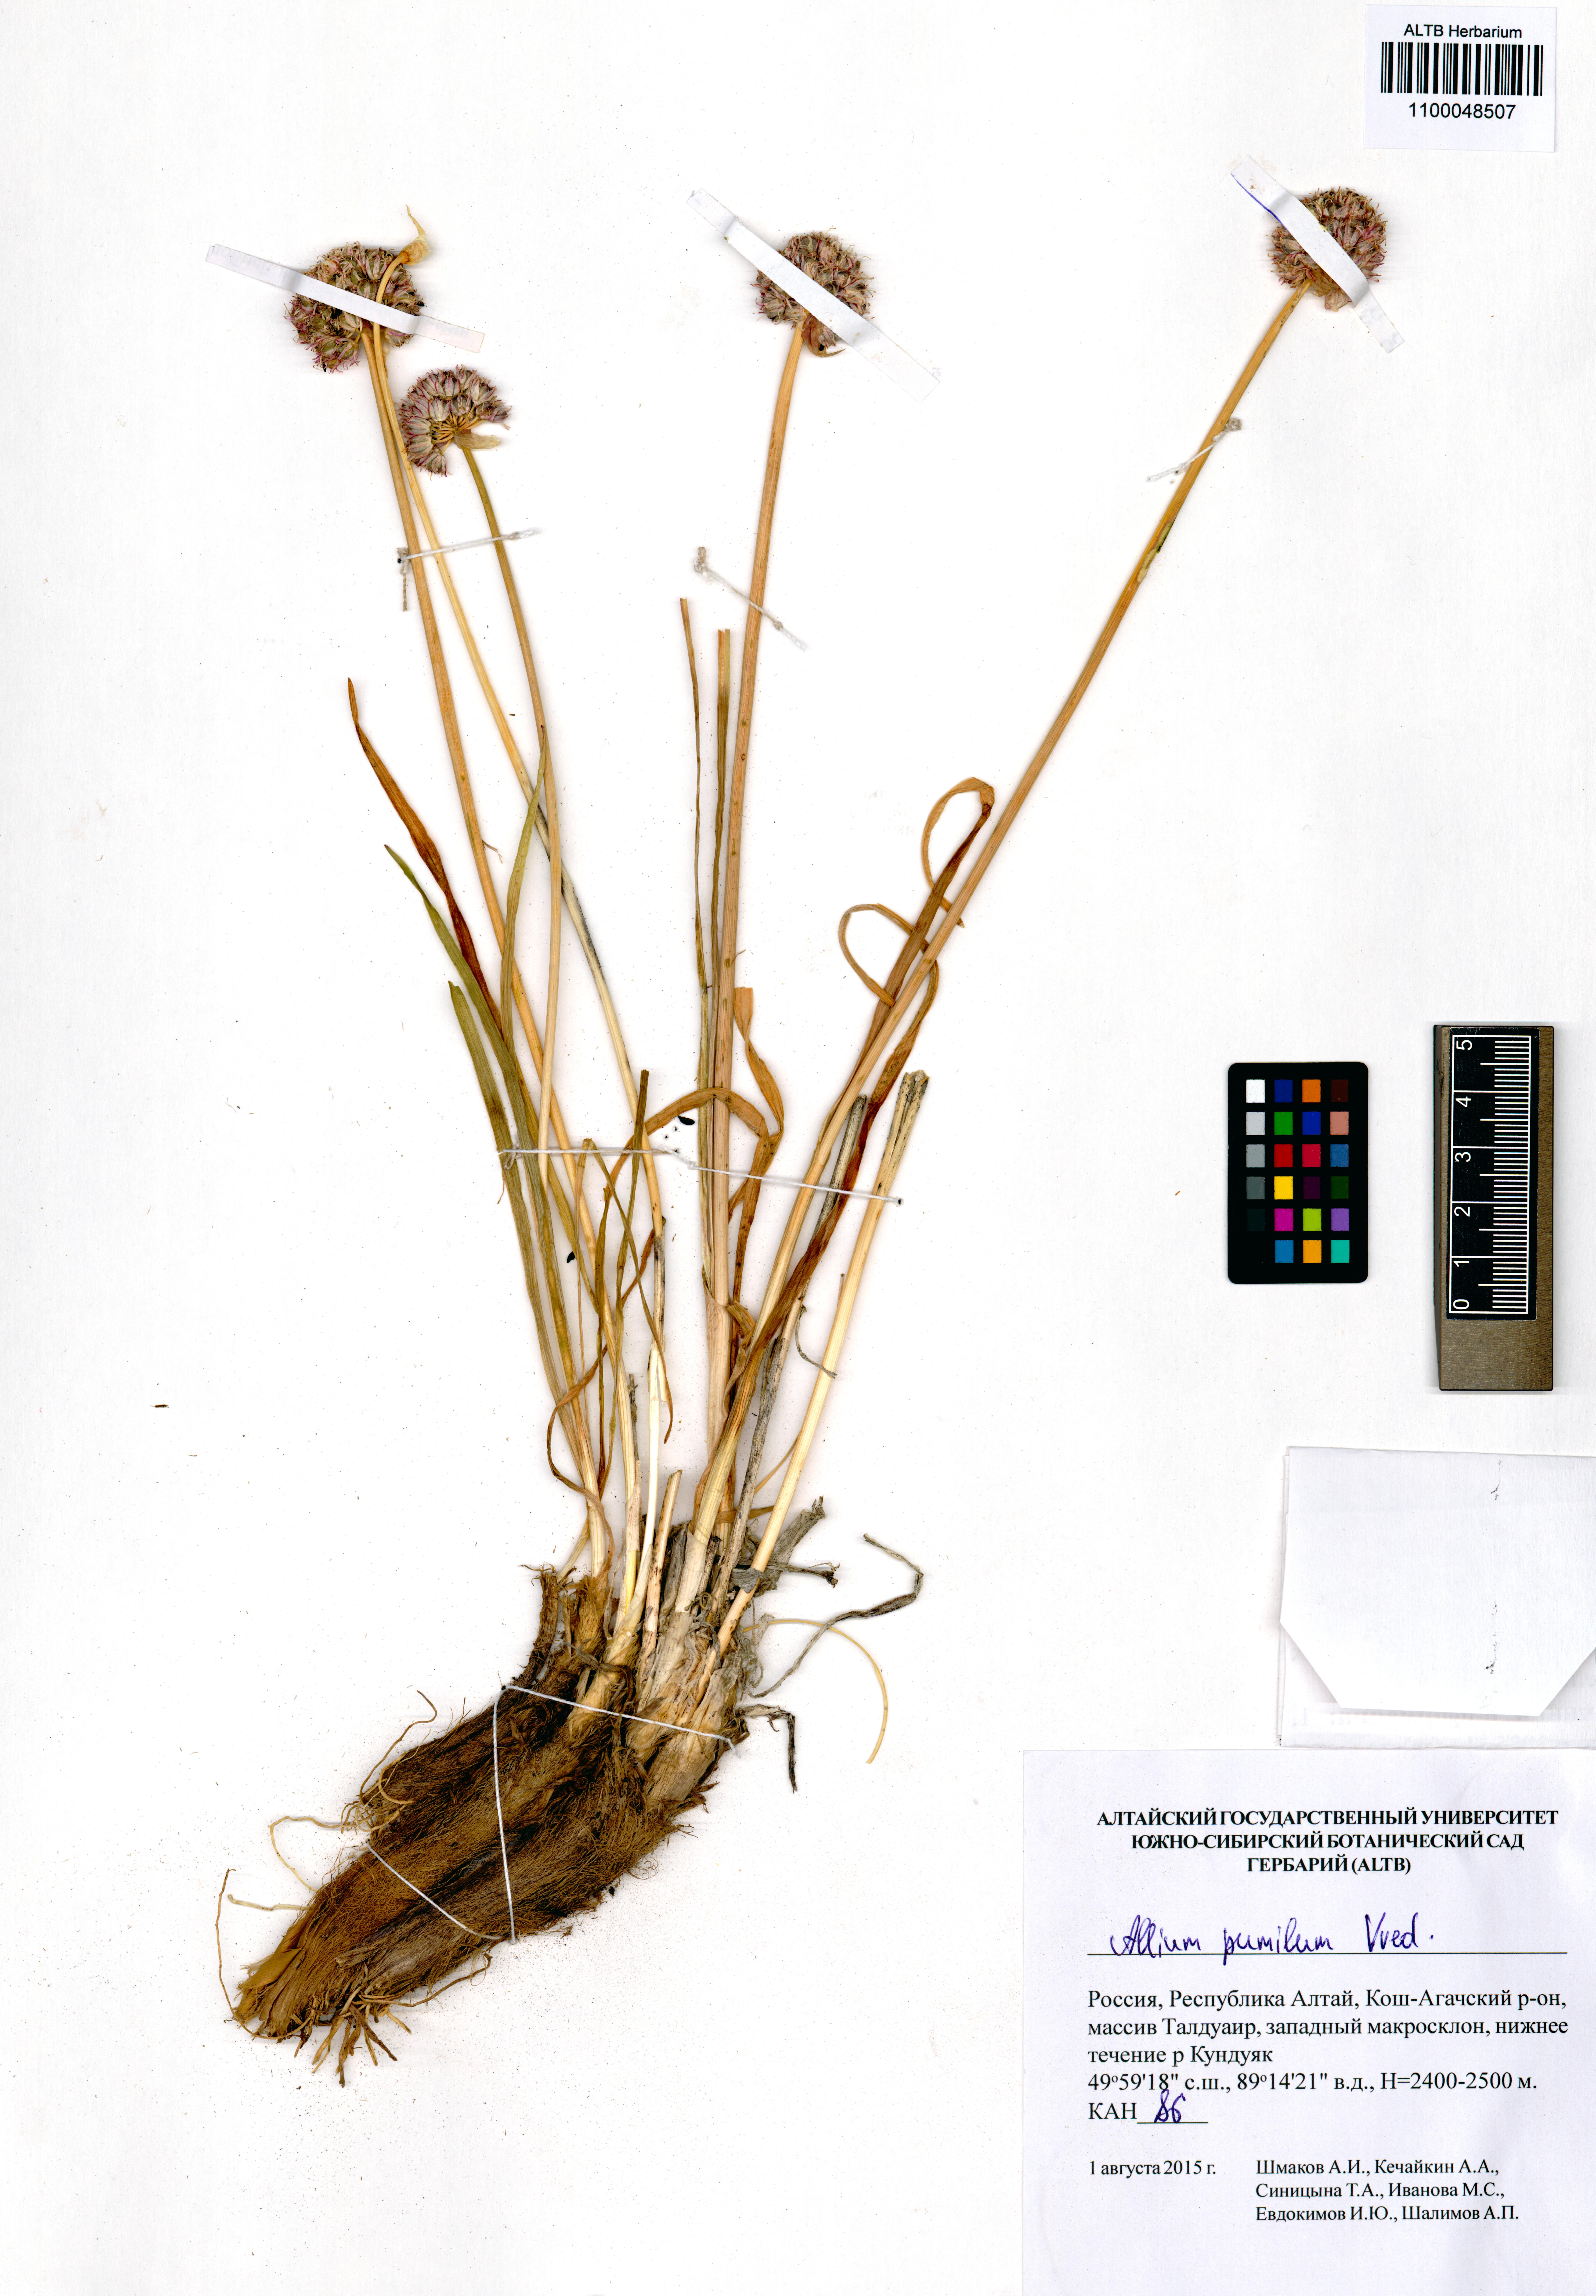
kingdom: Plantae
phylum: Tracheophyta
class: Liliopsida
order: Asparagales
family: Amaryllidaceae
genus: Allium
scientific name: Allium pumilum
